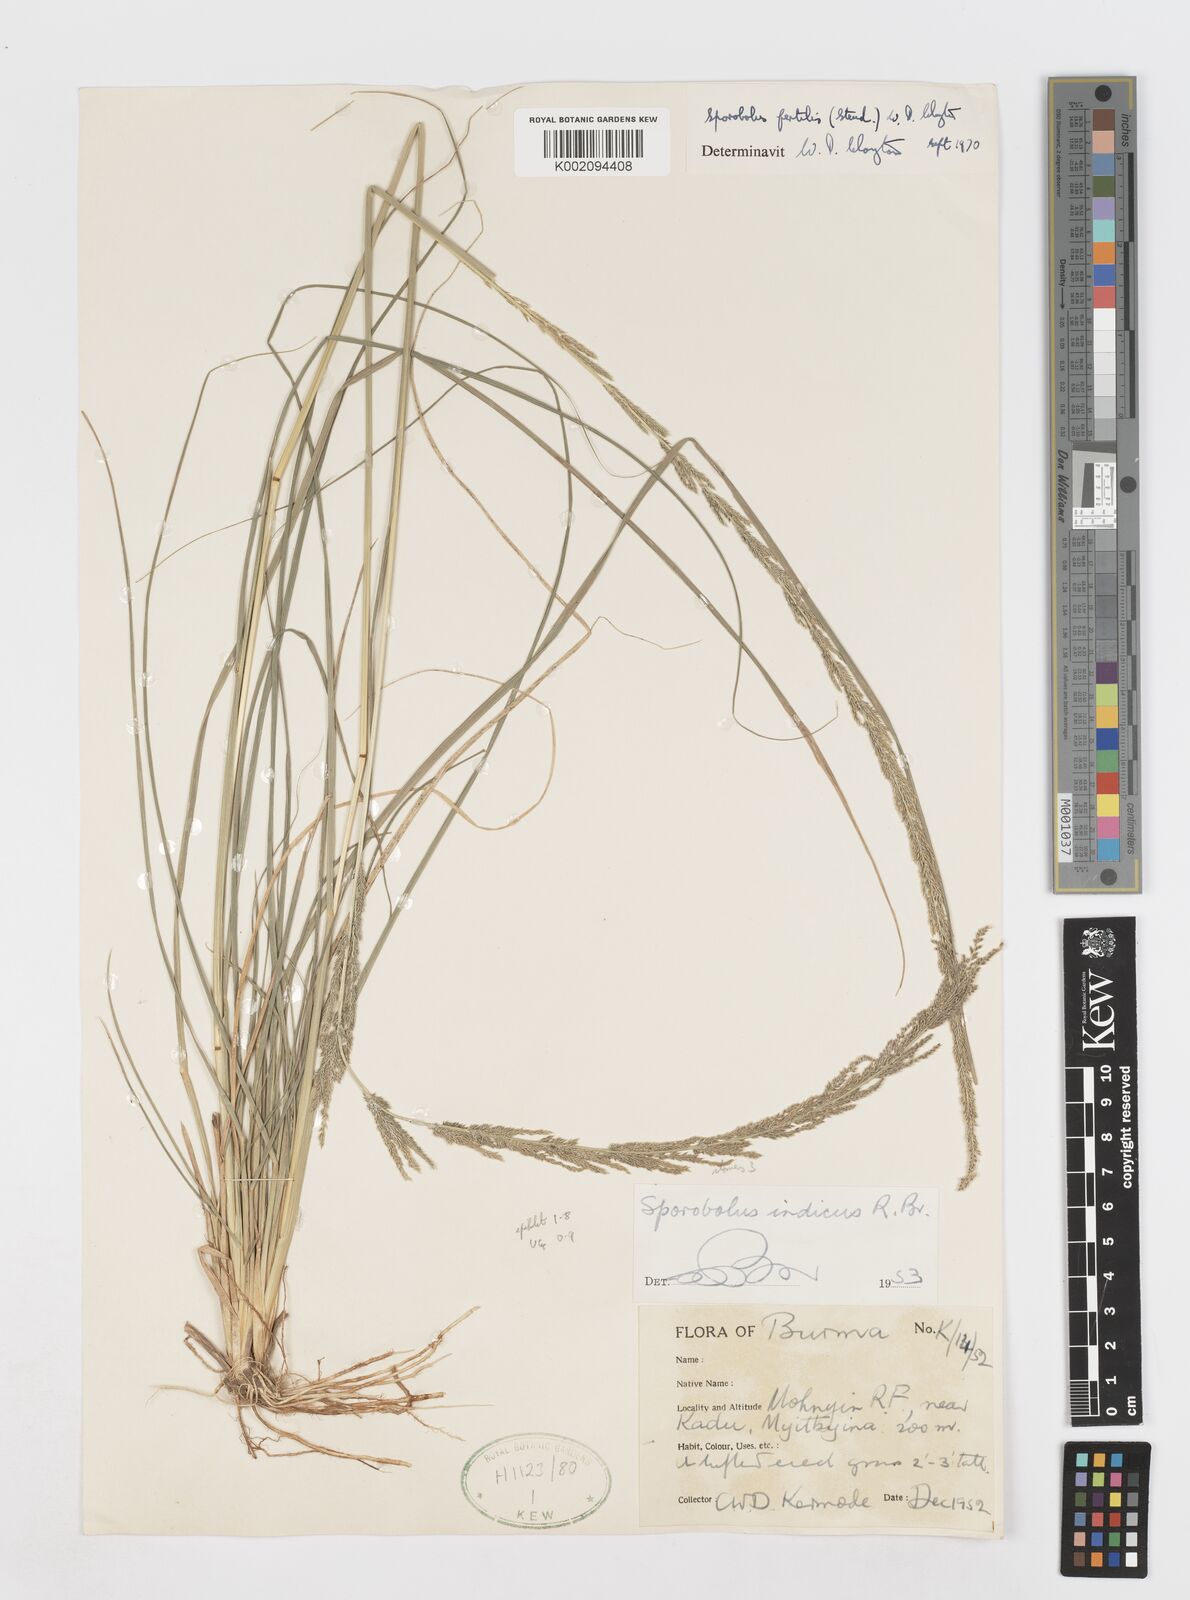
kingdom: Plantae
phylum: Tracheophyta
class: Liliopsida
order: Poales
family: Poaceae
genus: Sporobolus
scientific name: Sporobolus fertilis
